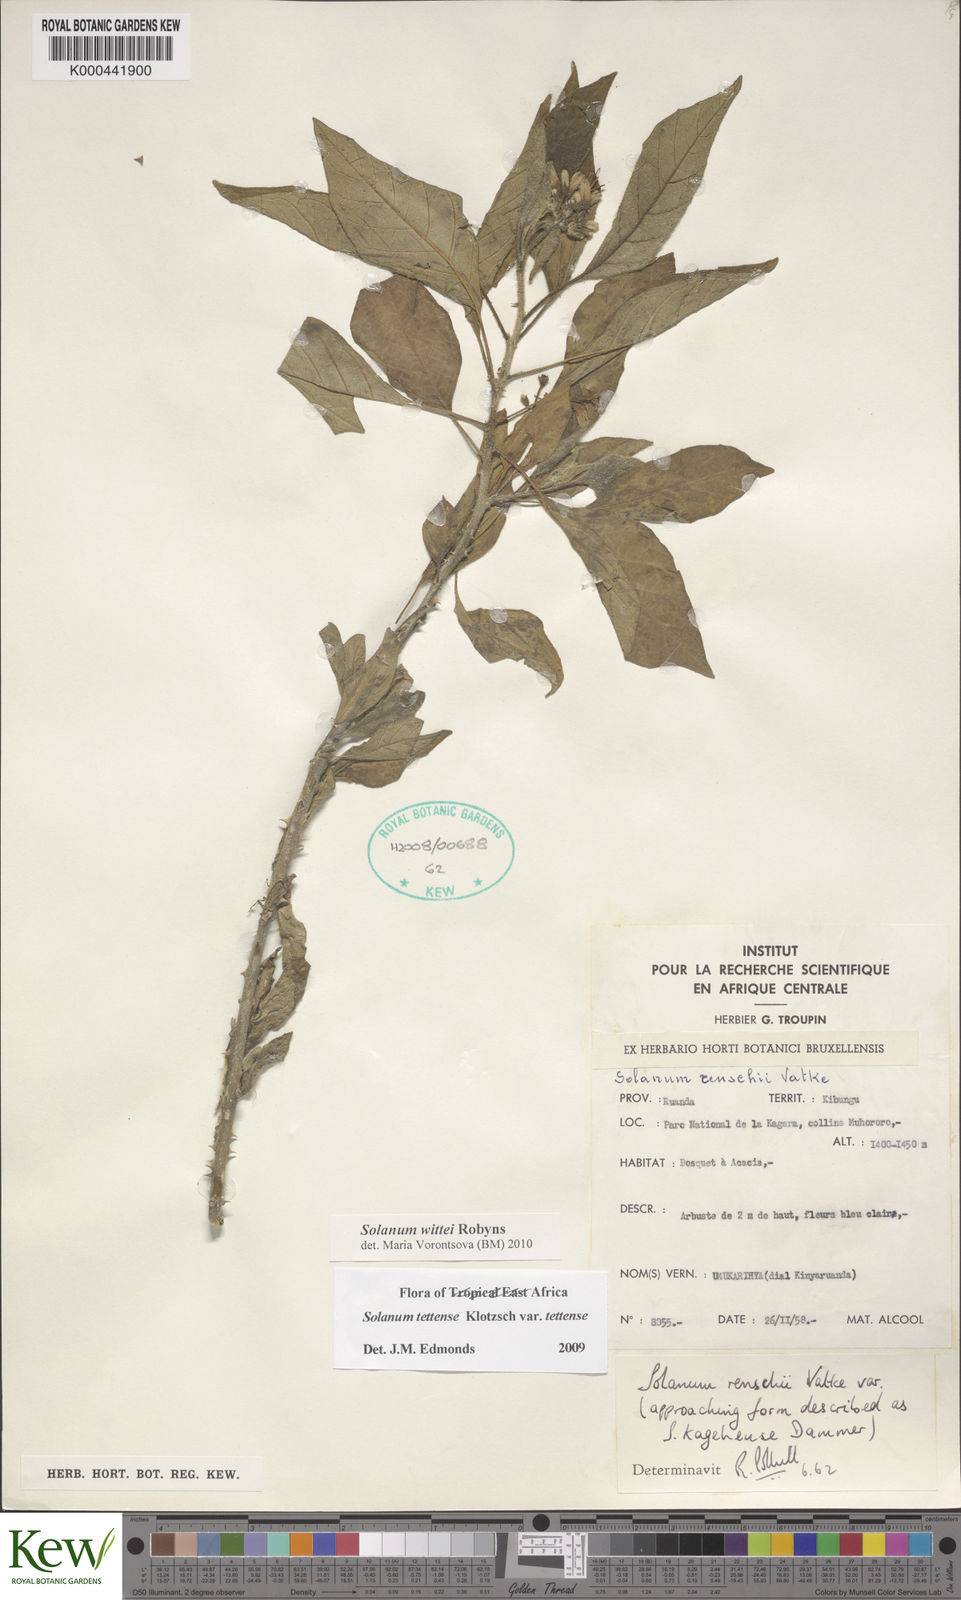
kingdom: Plantae
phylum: Tracheophyta
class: Magnoliopsida
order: Solanales
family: Solanaceae
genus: Solanum
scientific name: Solanum wittei
